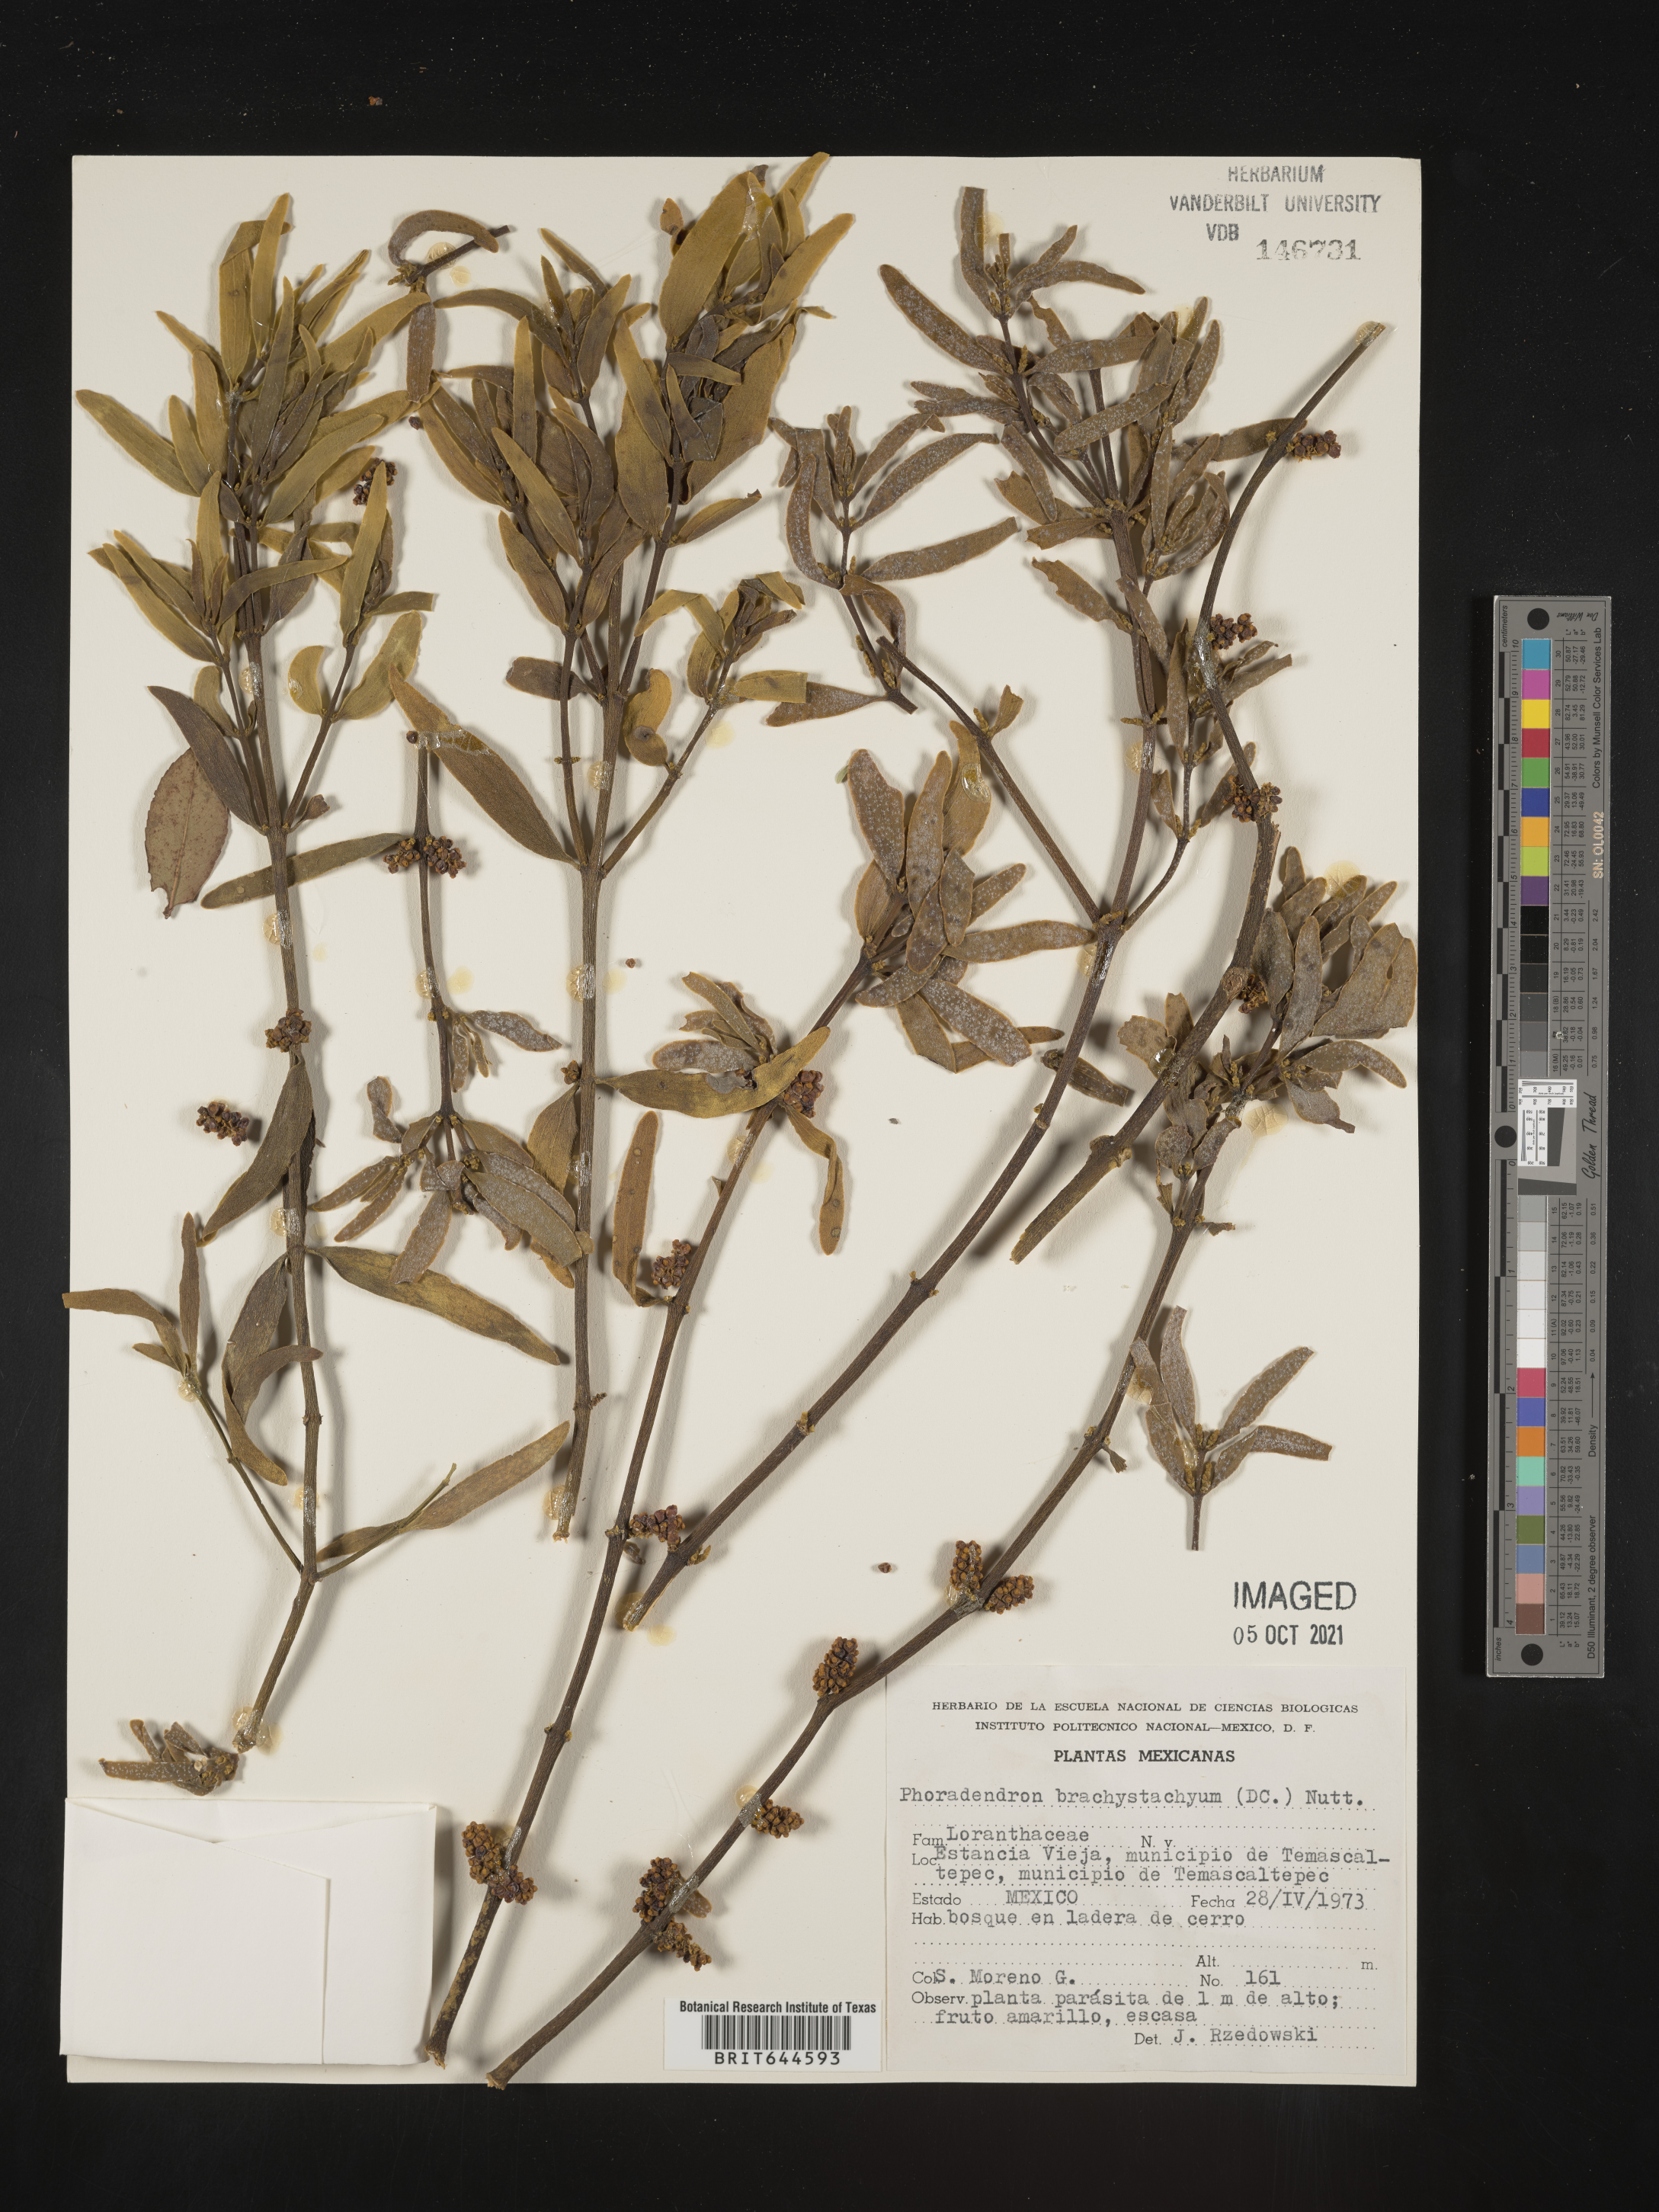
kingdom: Plantae
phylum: Tracheophyta
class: Magnoliopsida
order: Santalales
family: Viscaceae
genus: Phoradendron
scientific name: Phoradendron
